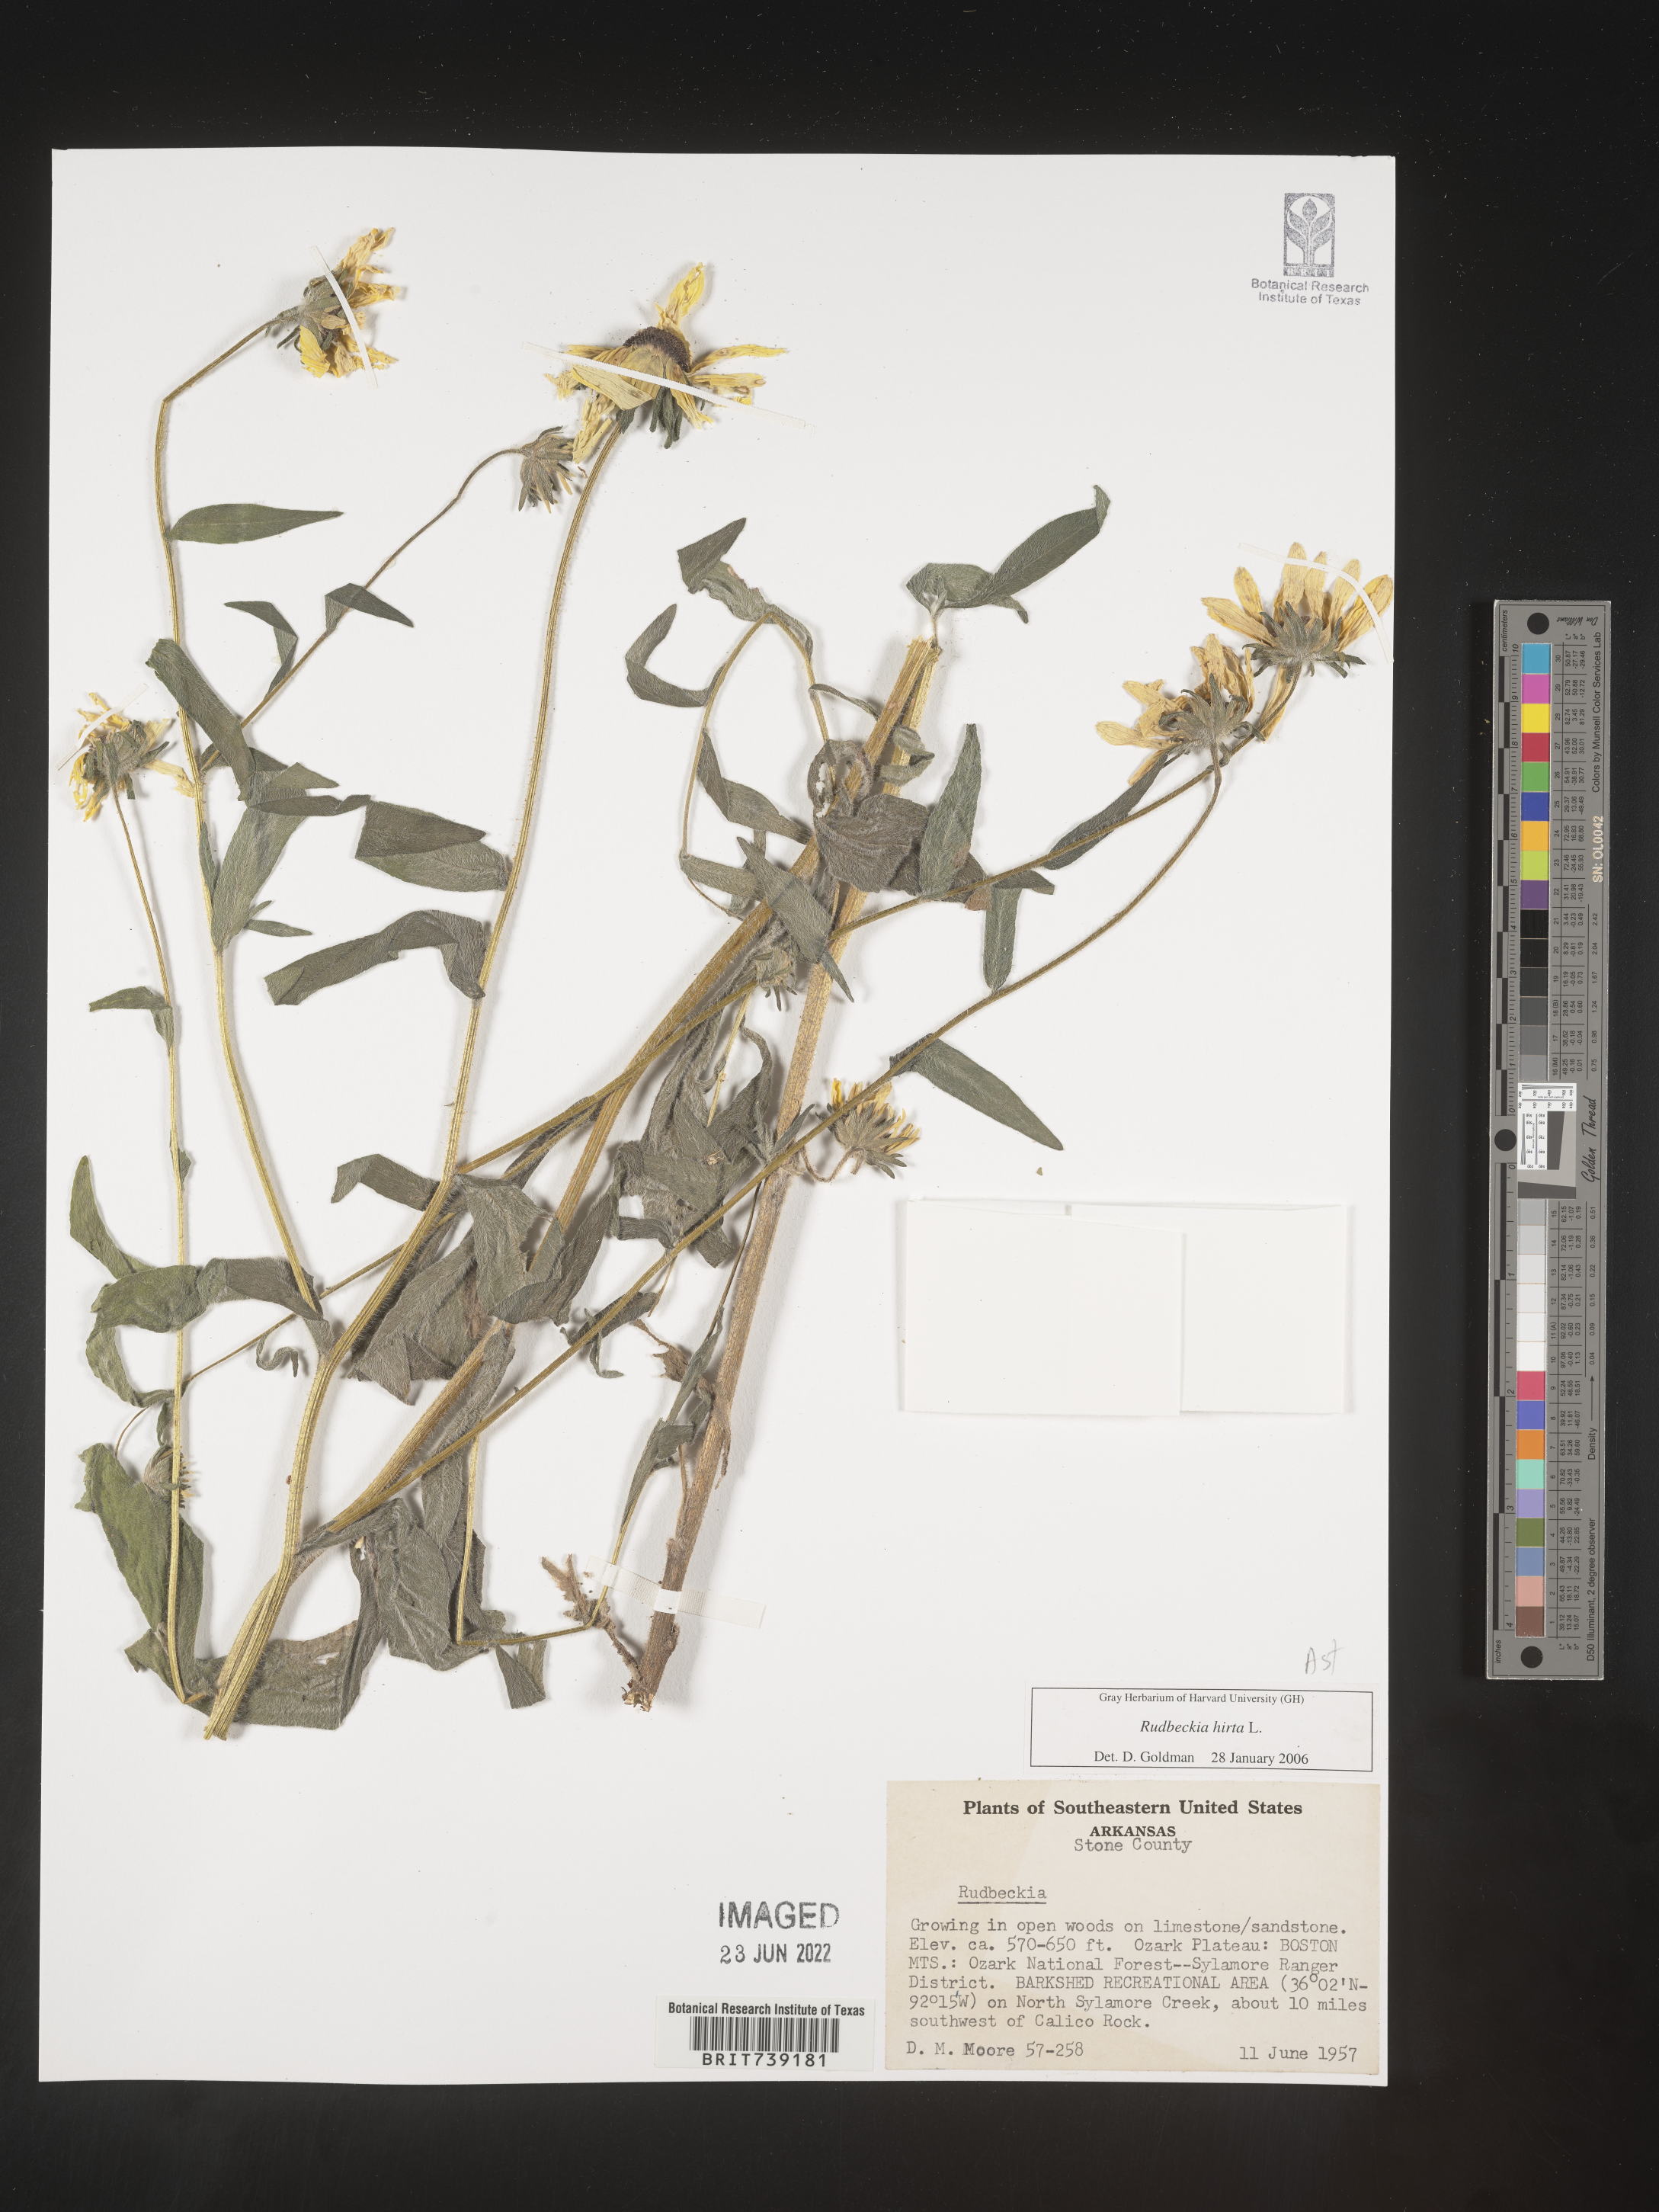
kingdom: Plantae
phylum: Tracheophyta
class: Magnoliopsida
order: Asterales
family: Asteraceae
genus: Rudbeckia
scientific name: Rudbeckia hirta
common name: Black-eyed-susan
